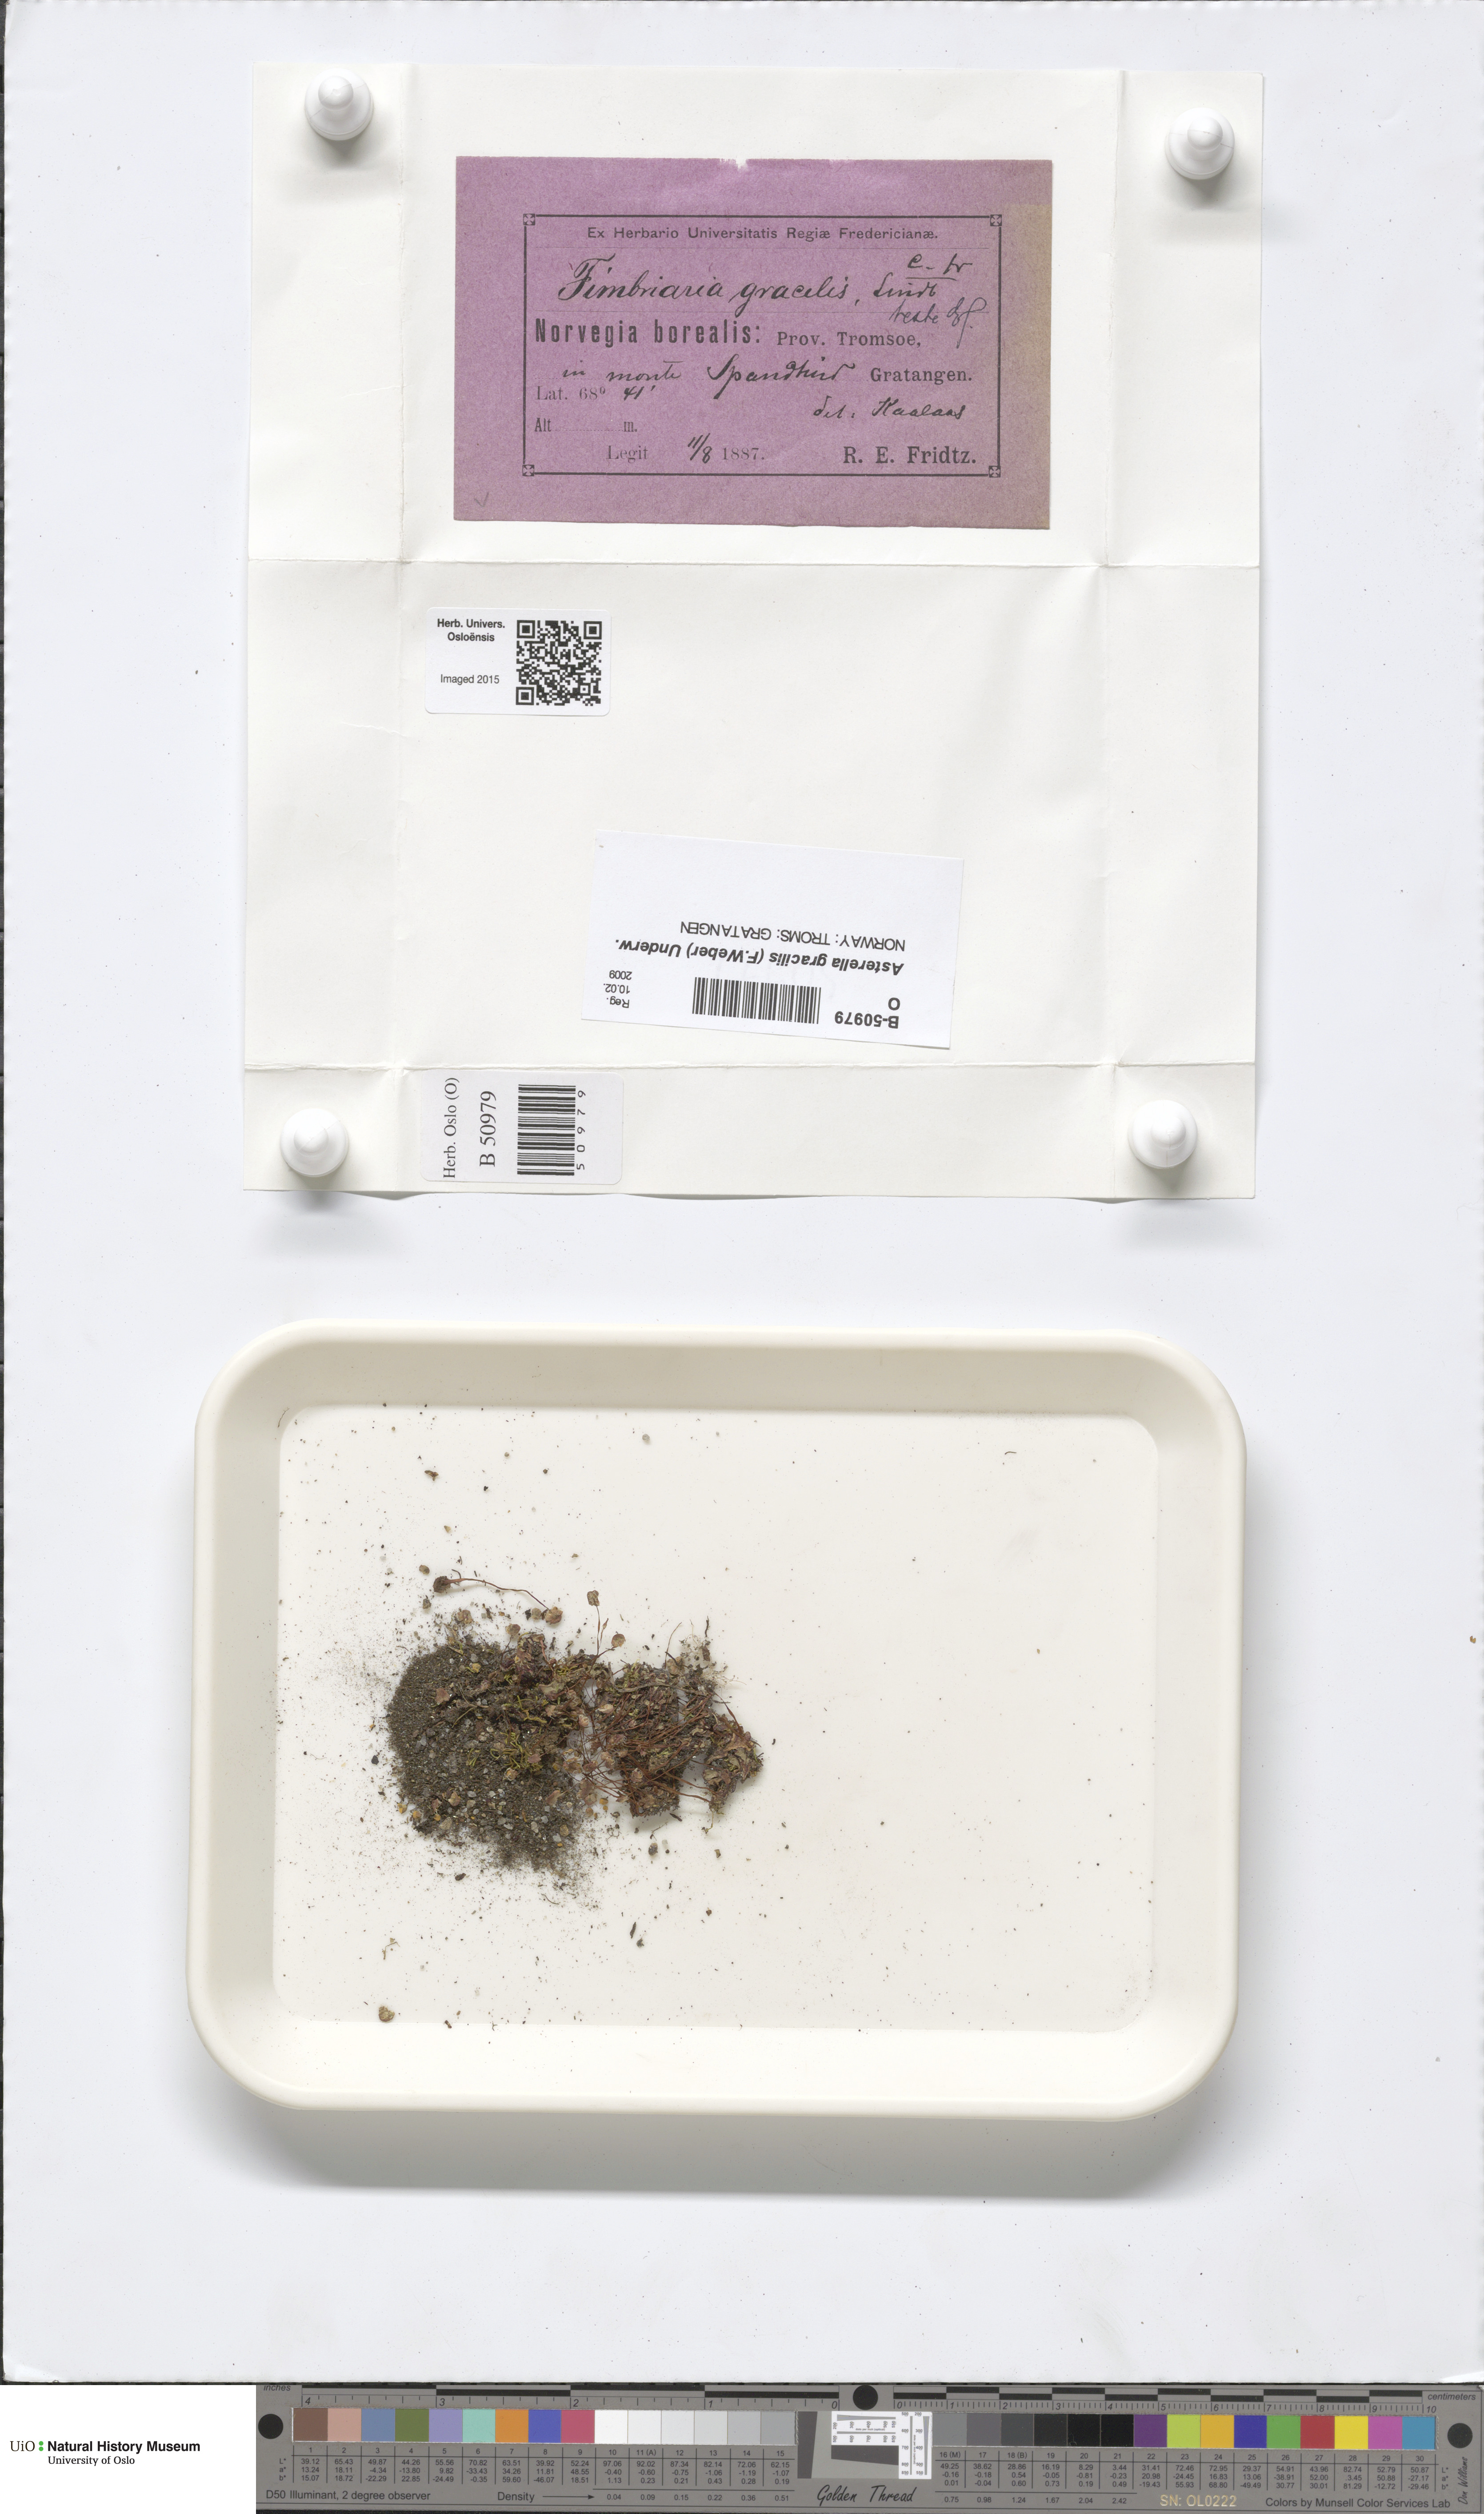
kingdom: Plantae
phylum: Marchantiophyta
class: Marchantiopsida
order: Marchantiales
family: Aytoniaceae
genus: Mannia
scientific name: Mannia gracilis
